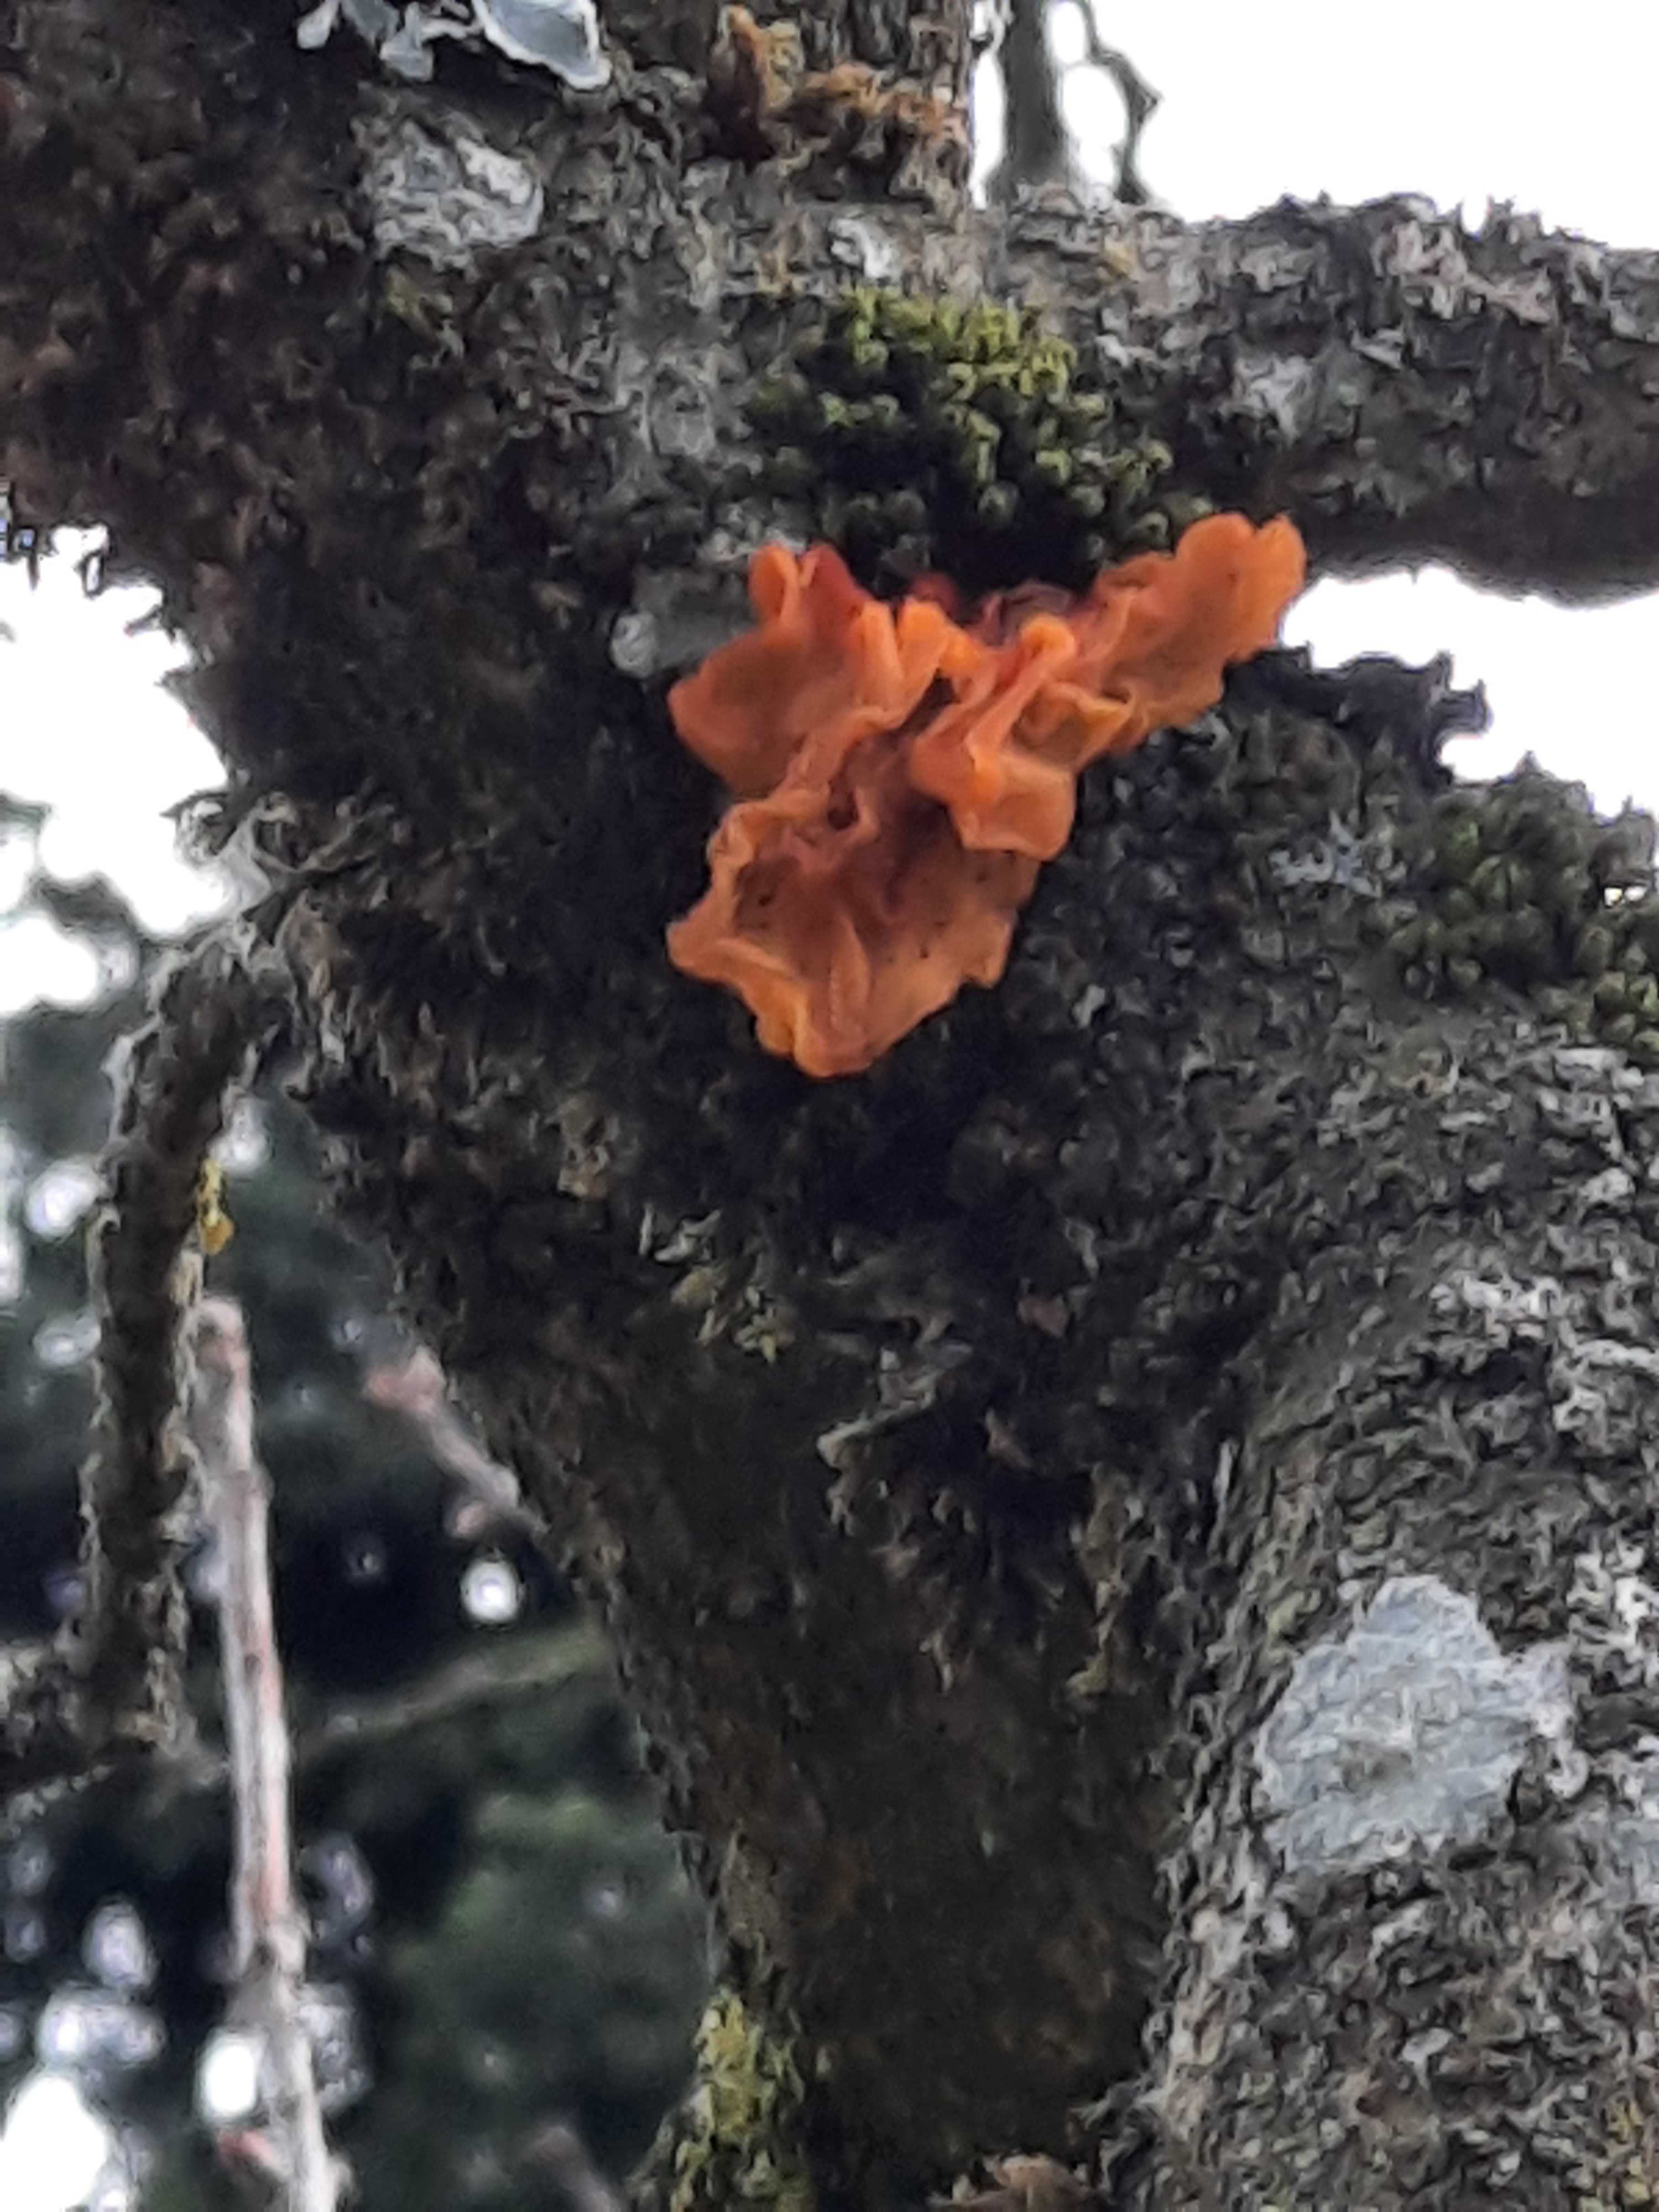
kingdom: Fungi
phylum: Basidiomycota
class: Tremellomycetes
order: Tremellales
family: Tremellaceae
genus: Tremella
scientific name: Tremella mesenterica
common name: gul bævresvamp
